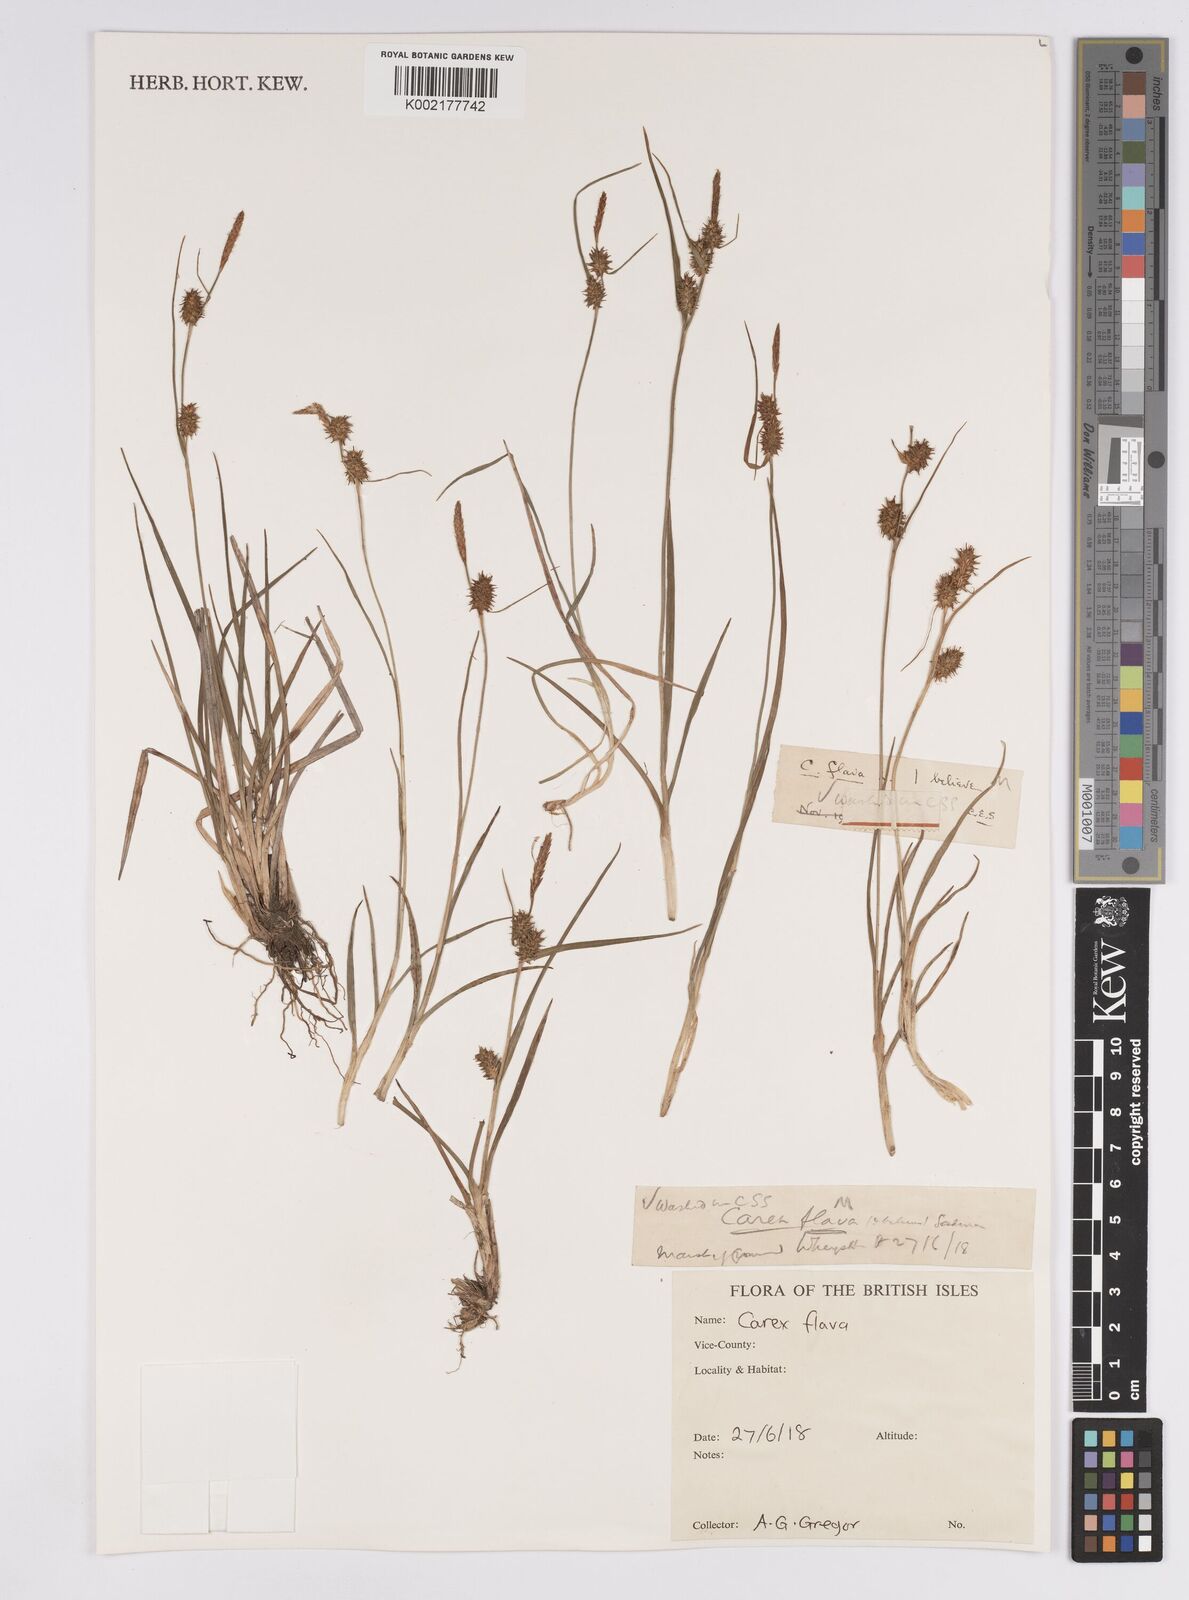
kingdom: Plantae
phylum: Tracheophyta
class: Liliopsida
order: Poales
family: Cyperaceae
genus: Carex
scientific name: Carex flava
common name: Large yellow-sedge
